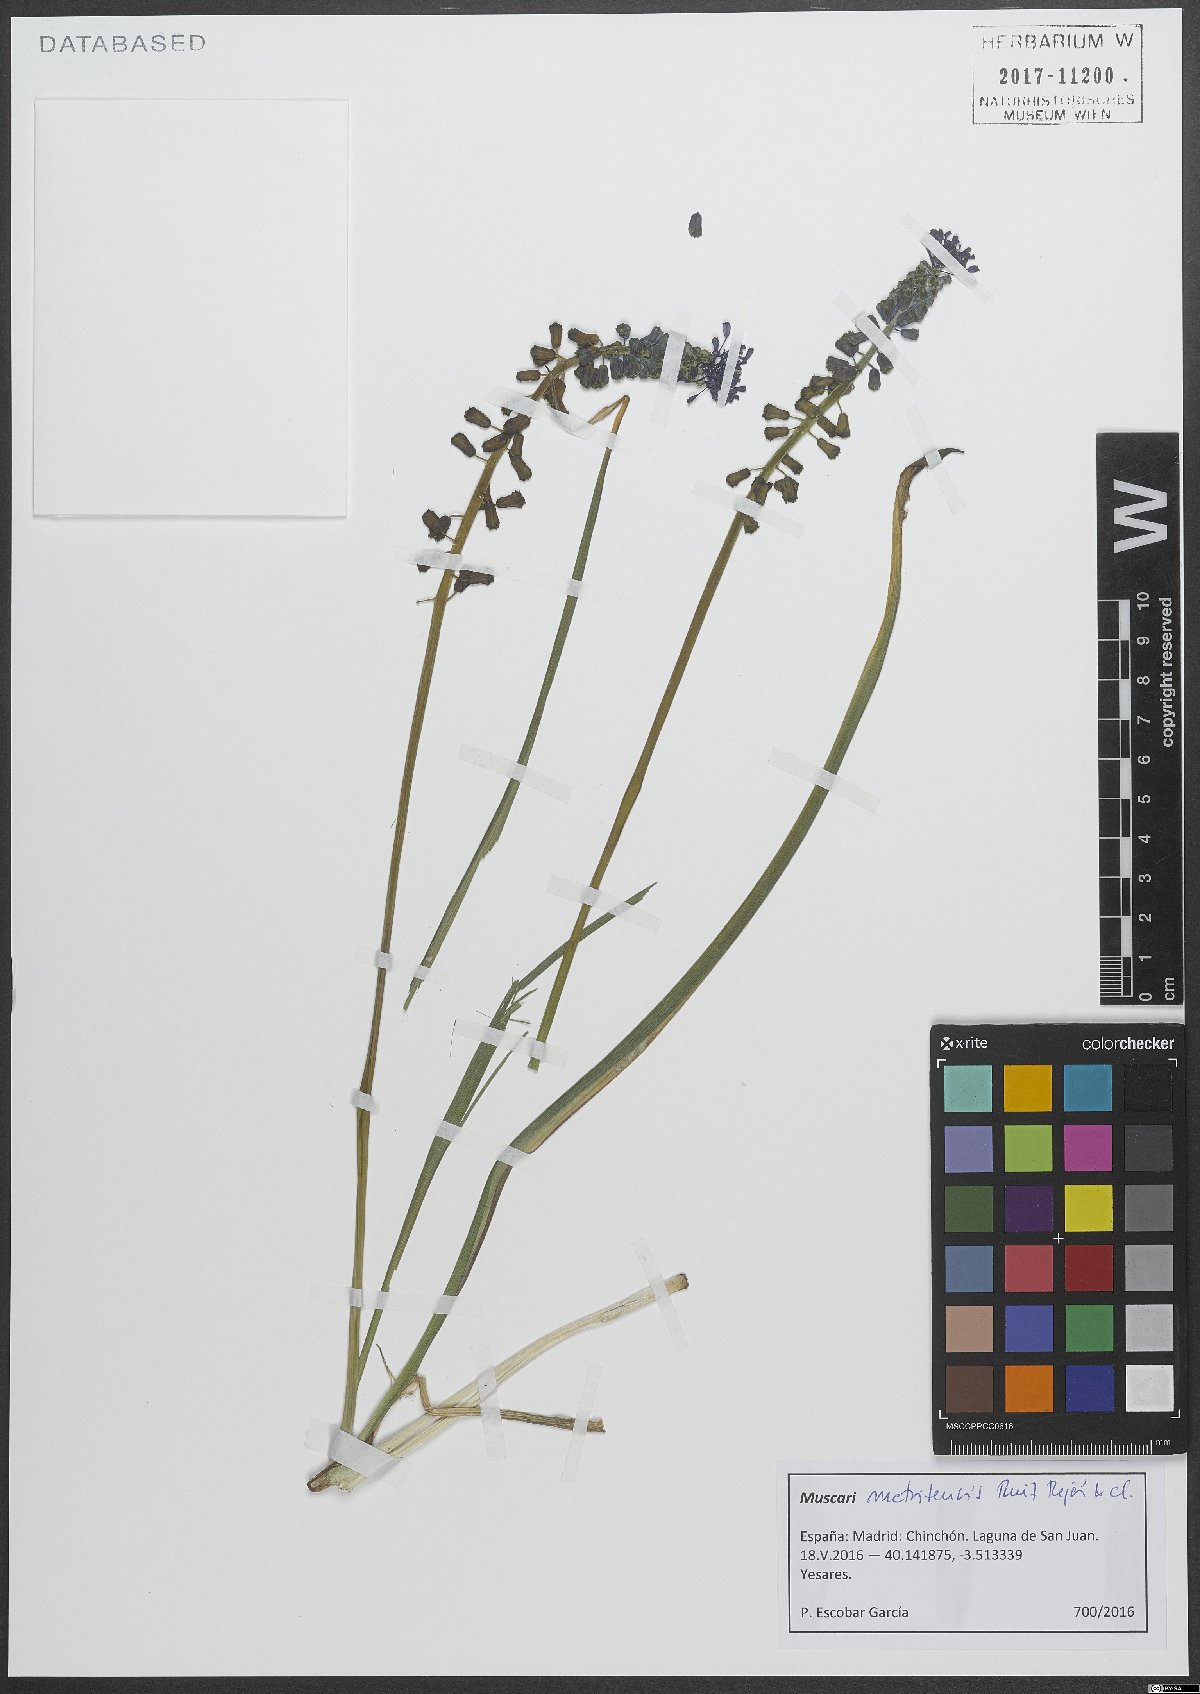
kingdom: Plantae
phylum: Tracheophyta
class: Liliopsida
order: Asparagales
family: Asparagaceae
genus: Muscari
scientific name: Muscari matritense
